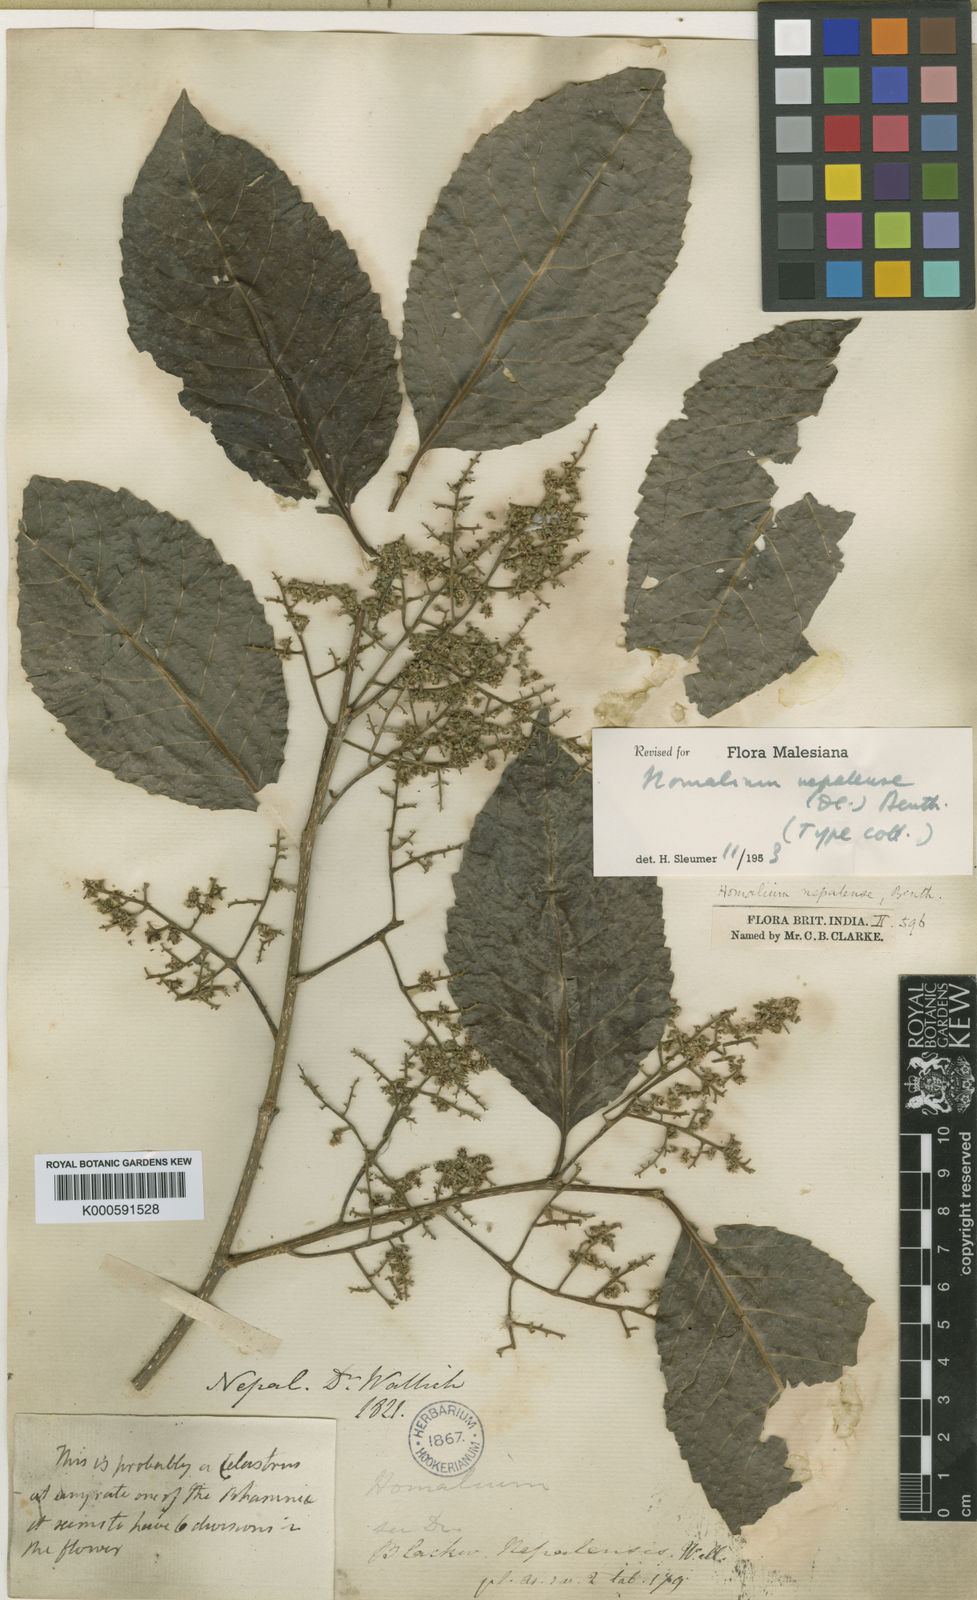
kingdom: Plantae
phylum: Tracheophyta
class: Magnoliopsida
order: Malpighiales
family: Salicaceae
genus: Homalium
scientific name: Homalium
